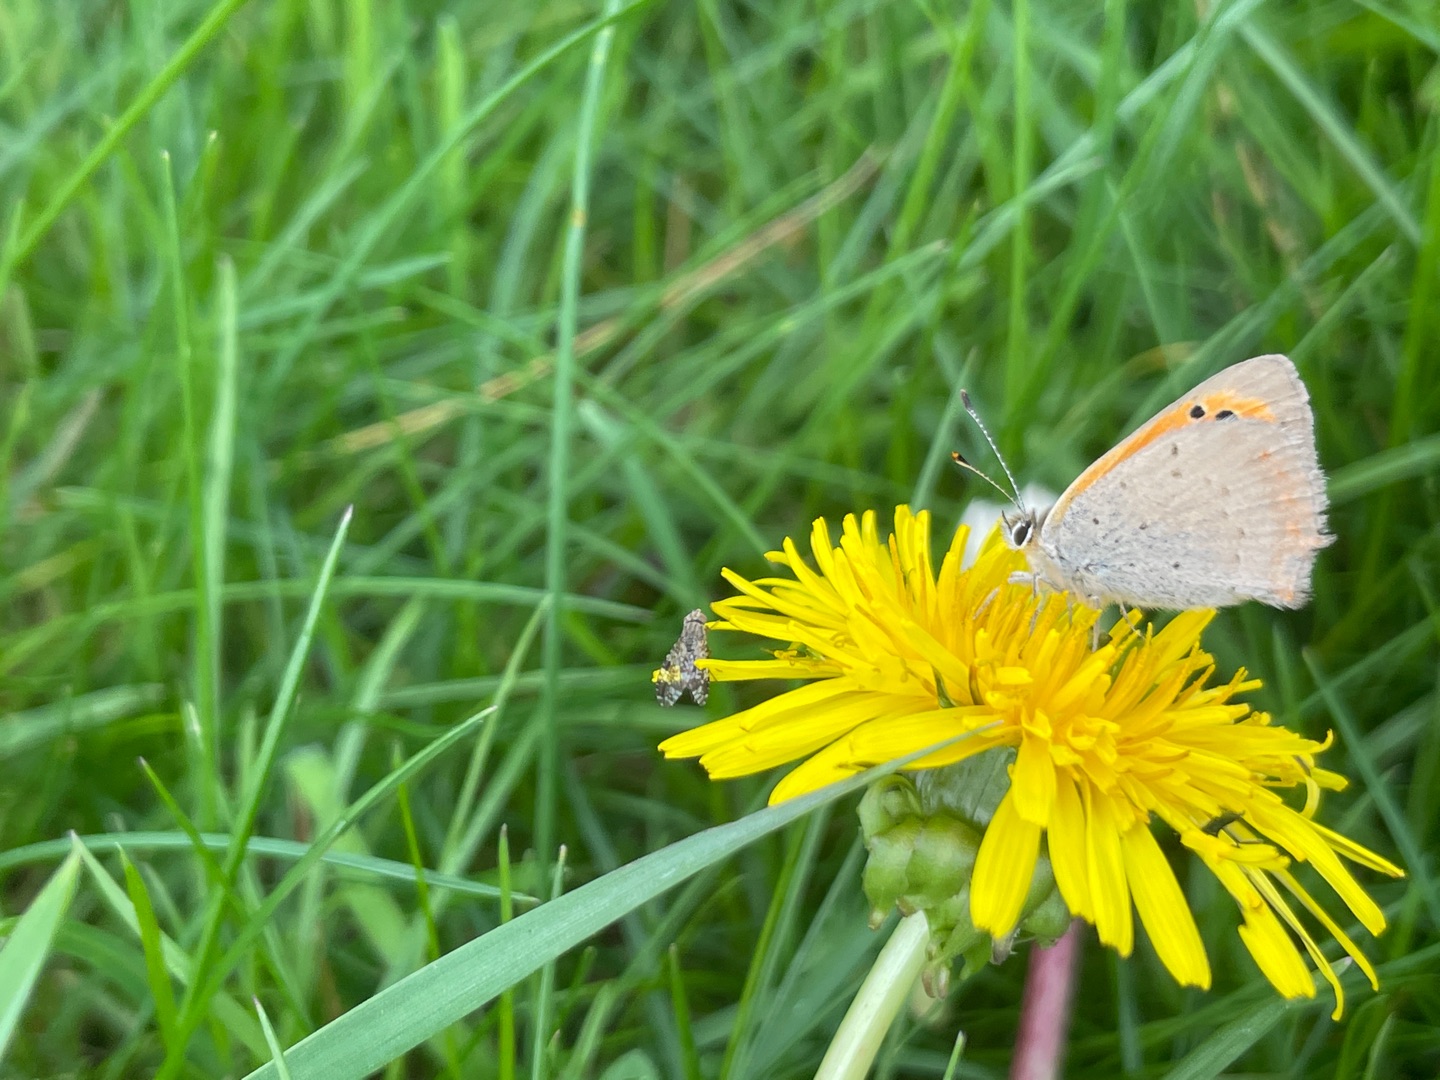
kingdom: Animalia
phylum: Arthropoda
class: Insecta
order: Lepidoptera
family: Lycaenidae
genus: Lycaena
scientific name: Lycaena phlaeas
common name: Lille ildfugl
